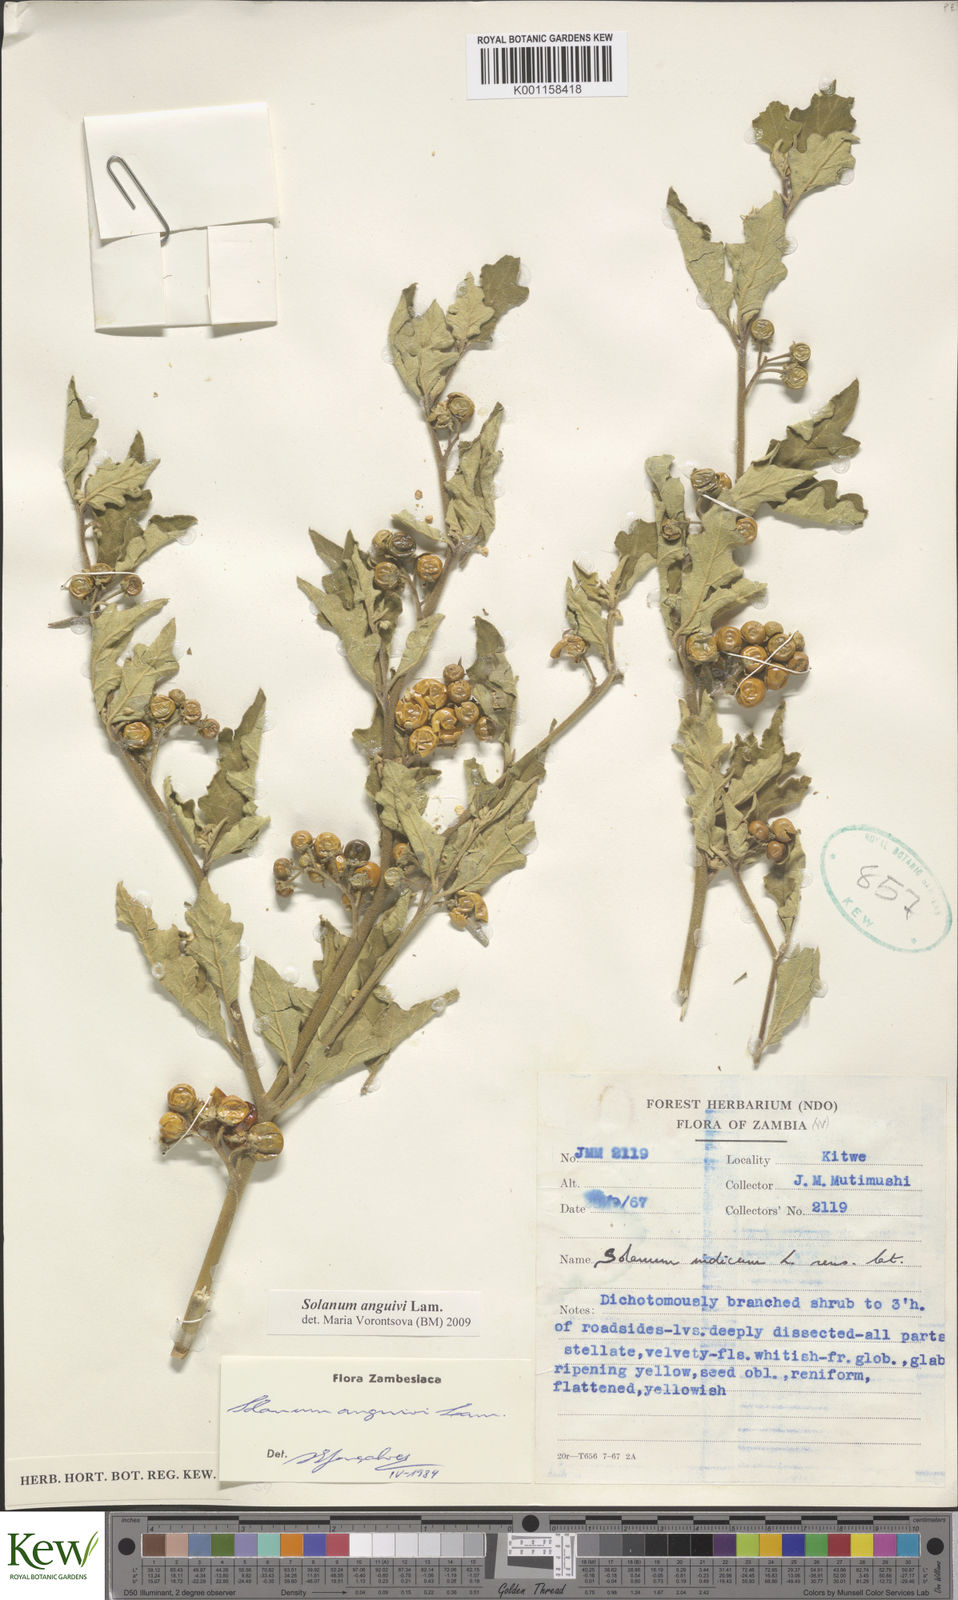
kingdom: Plantae
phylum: Tracheophyta
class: Magnoliopsida
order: Solanales
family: Solanaceae
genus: Solanum
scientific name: Solanum anguivi
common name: Forest bitterberry
